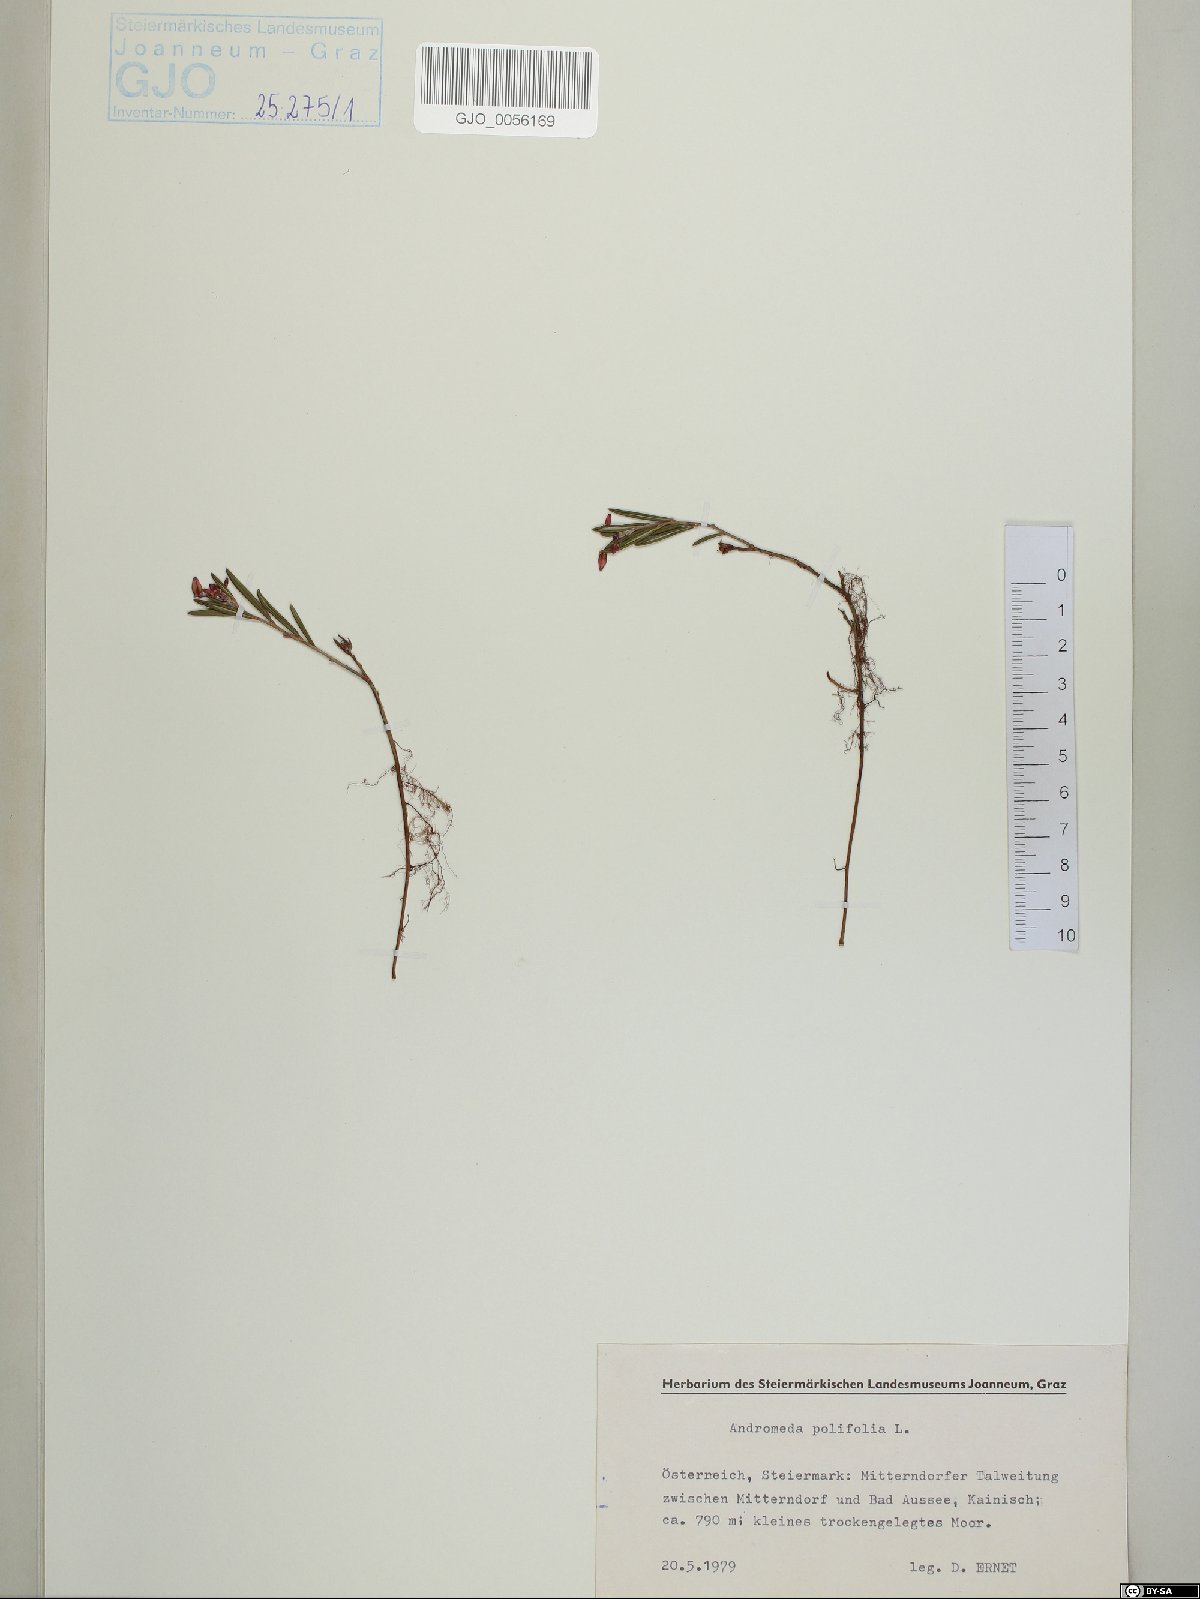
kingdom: Plantae
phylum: Tracheophyta
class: Magnoliopsida
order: Ericales
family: Ericaceae
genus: Andromeda
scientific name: Andromeda polifolia
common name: Bog-rosemary
